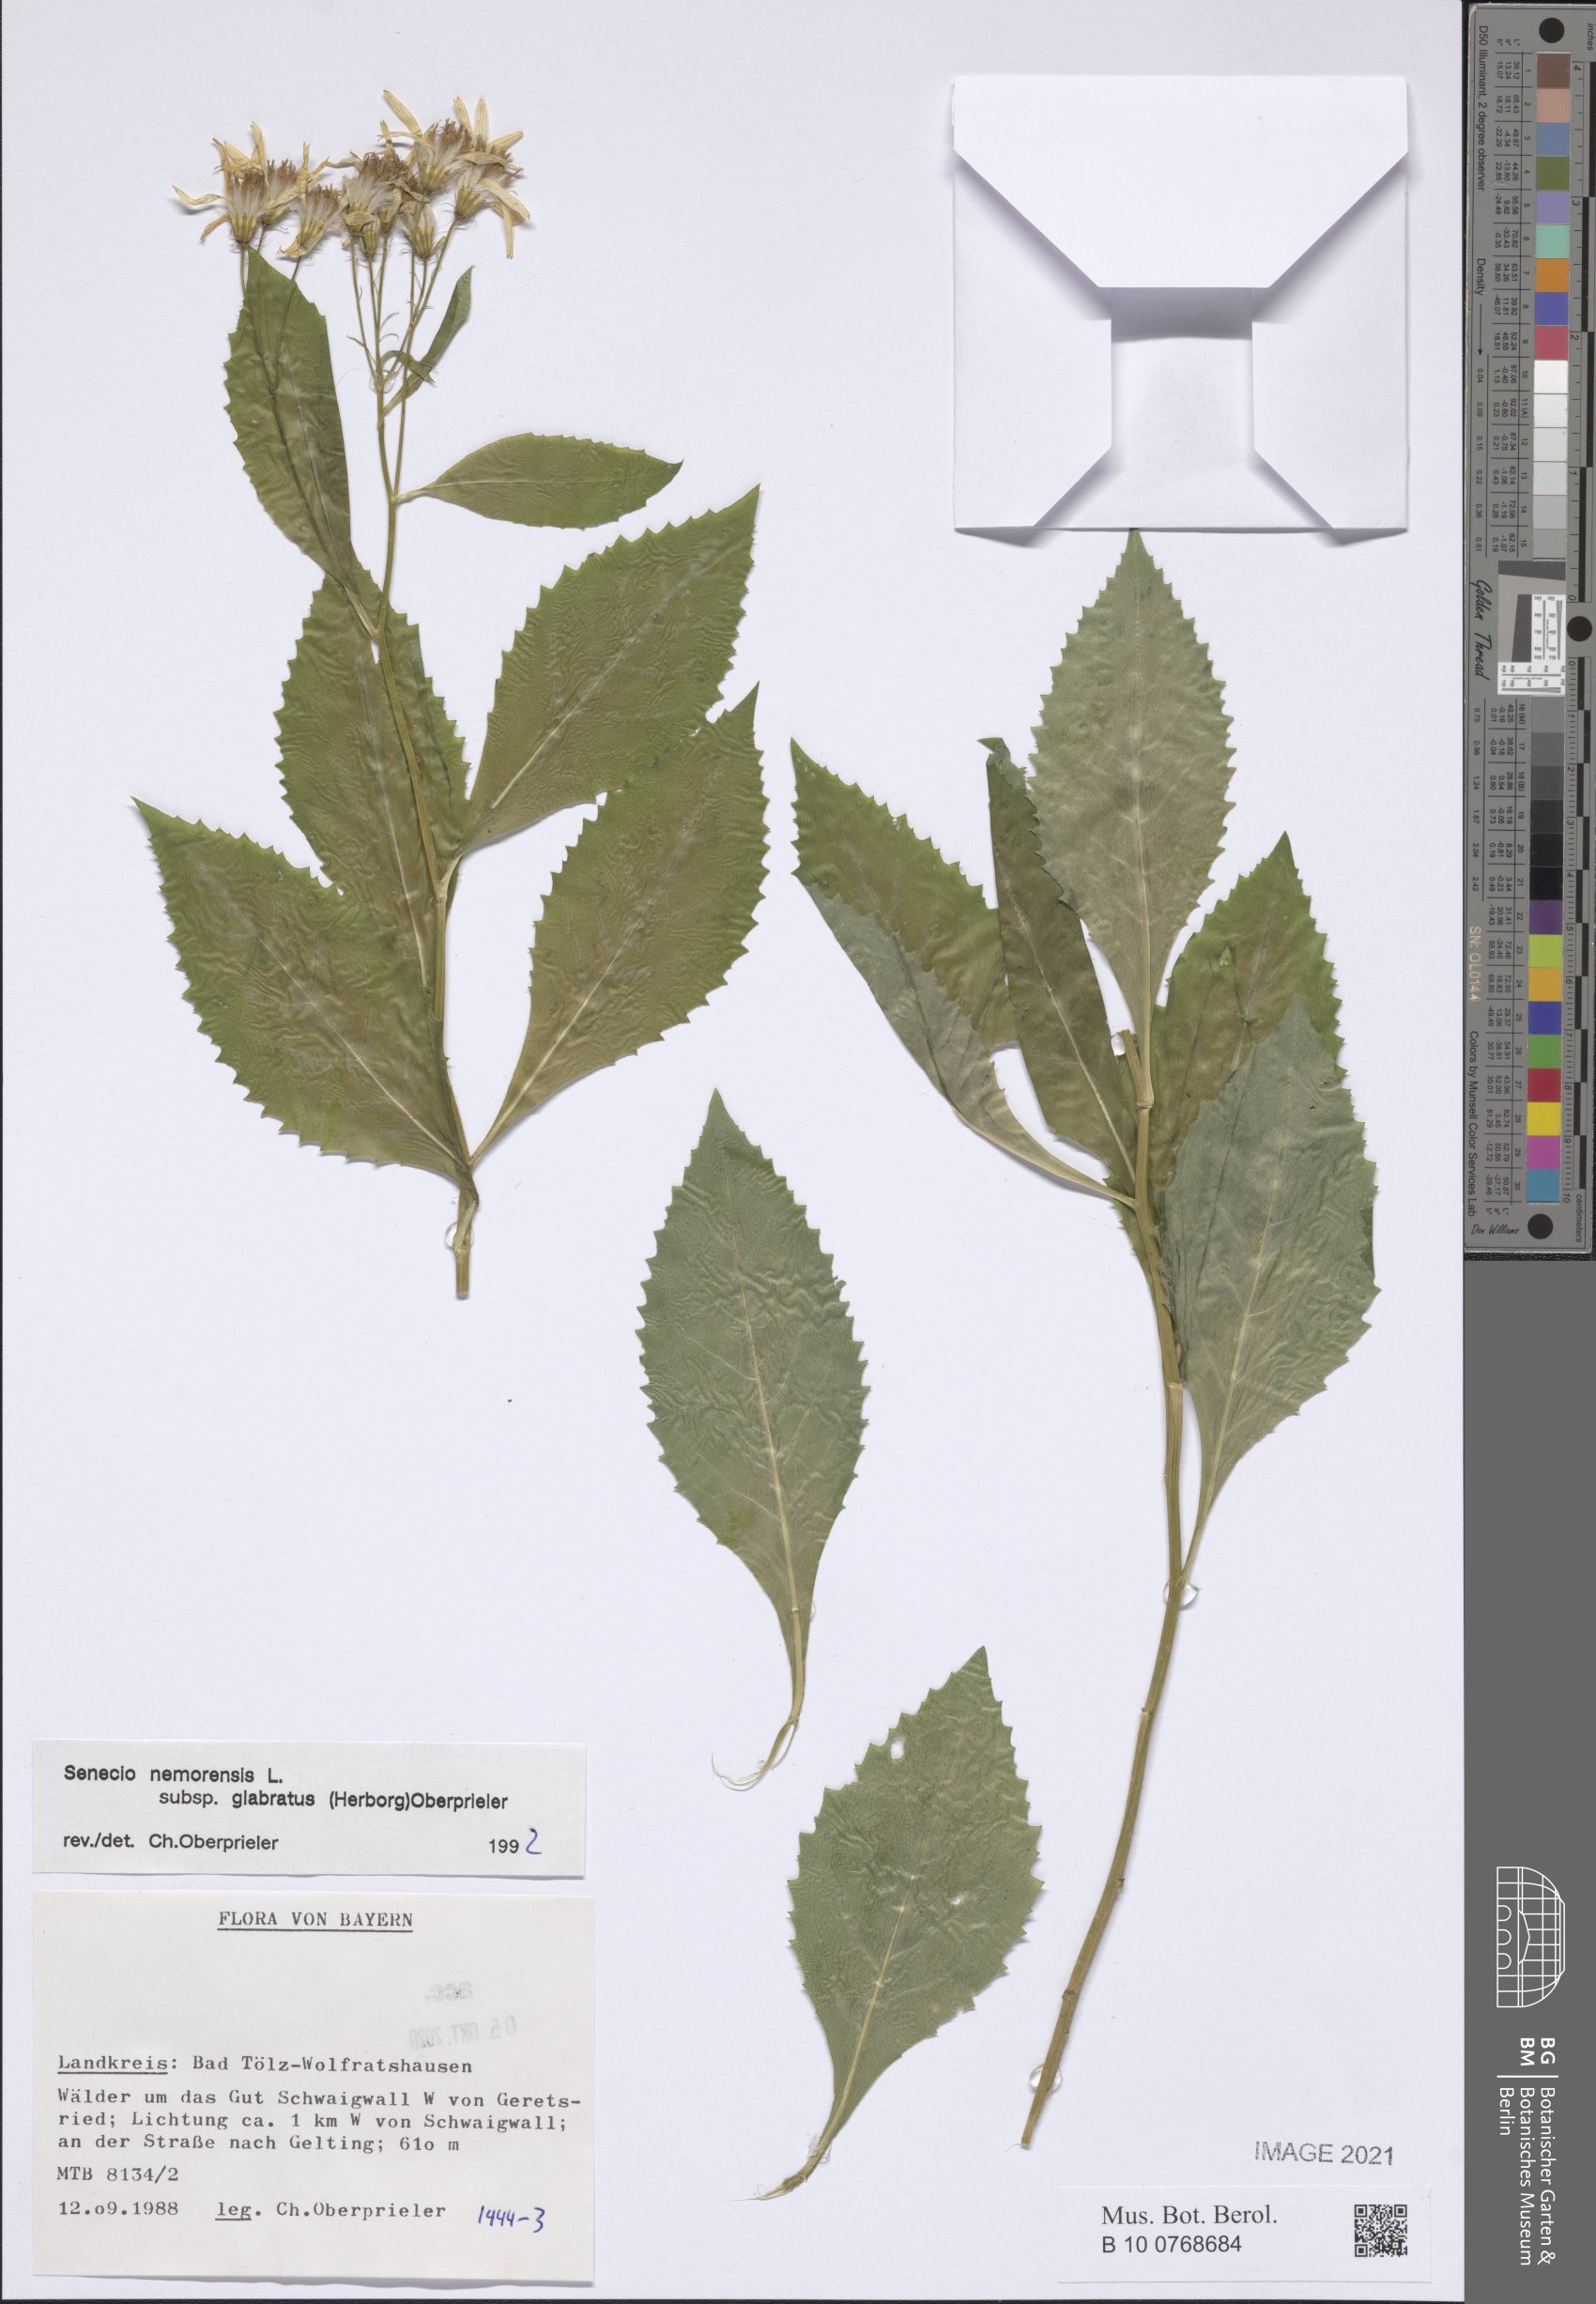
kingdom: Plantae
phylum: Tracheophyta
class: Magnoliopsida
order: Asterales
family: Asteraceae
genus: Senecio
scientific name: Senecio germanicus
